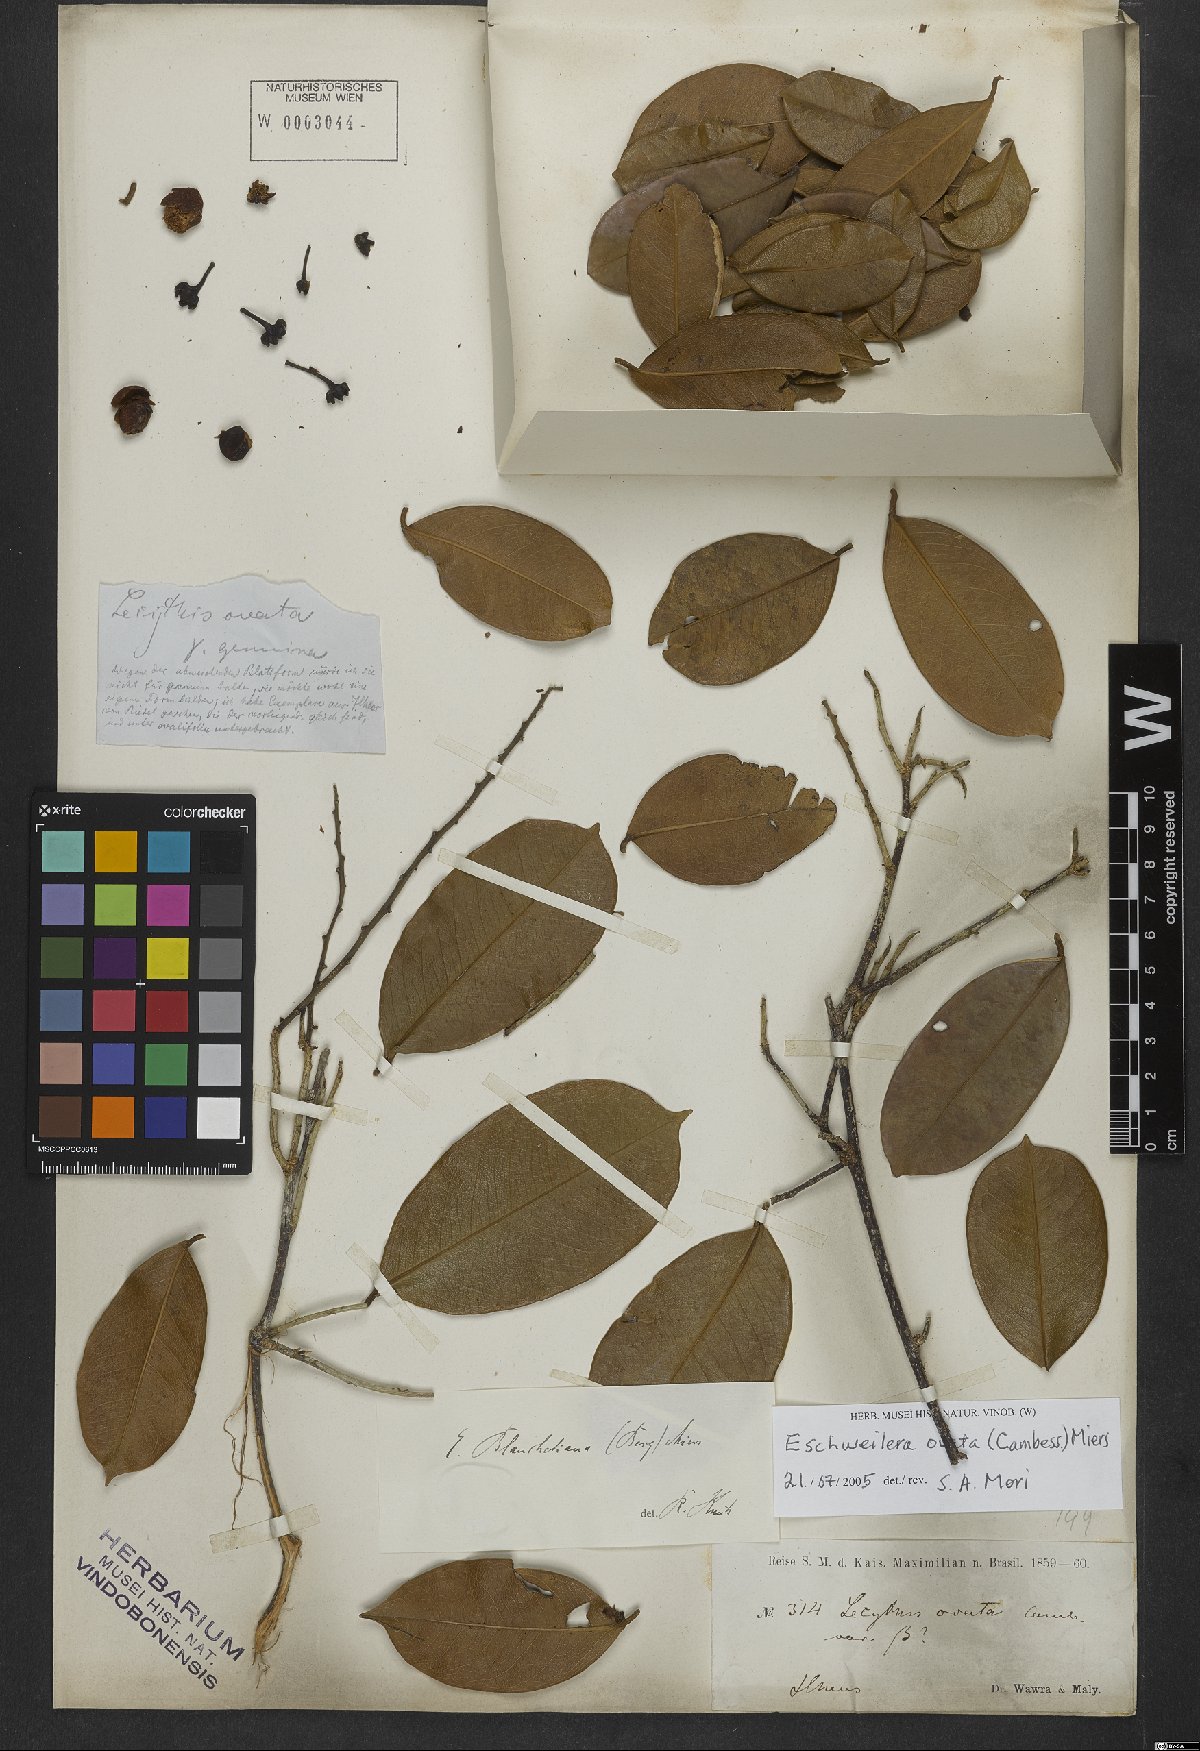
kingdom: Plantae
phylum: Tracheophyta
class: Magnoliopsida
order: Ericales
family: Lecythidaceae
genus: Eschweilera
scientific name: Eschweilera ovata
